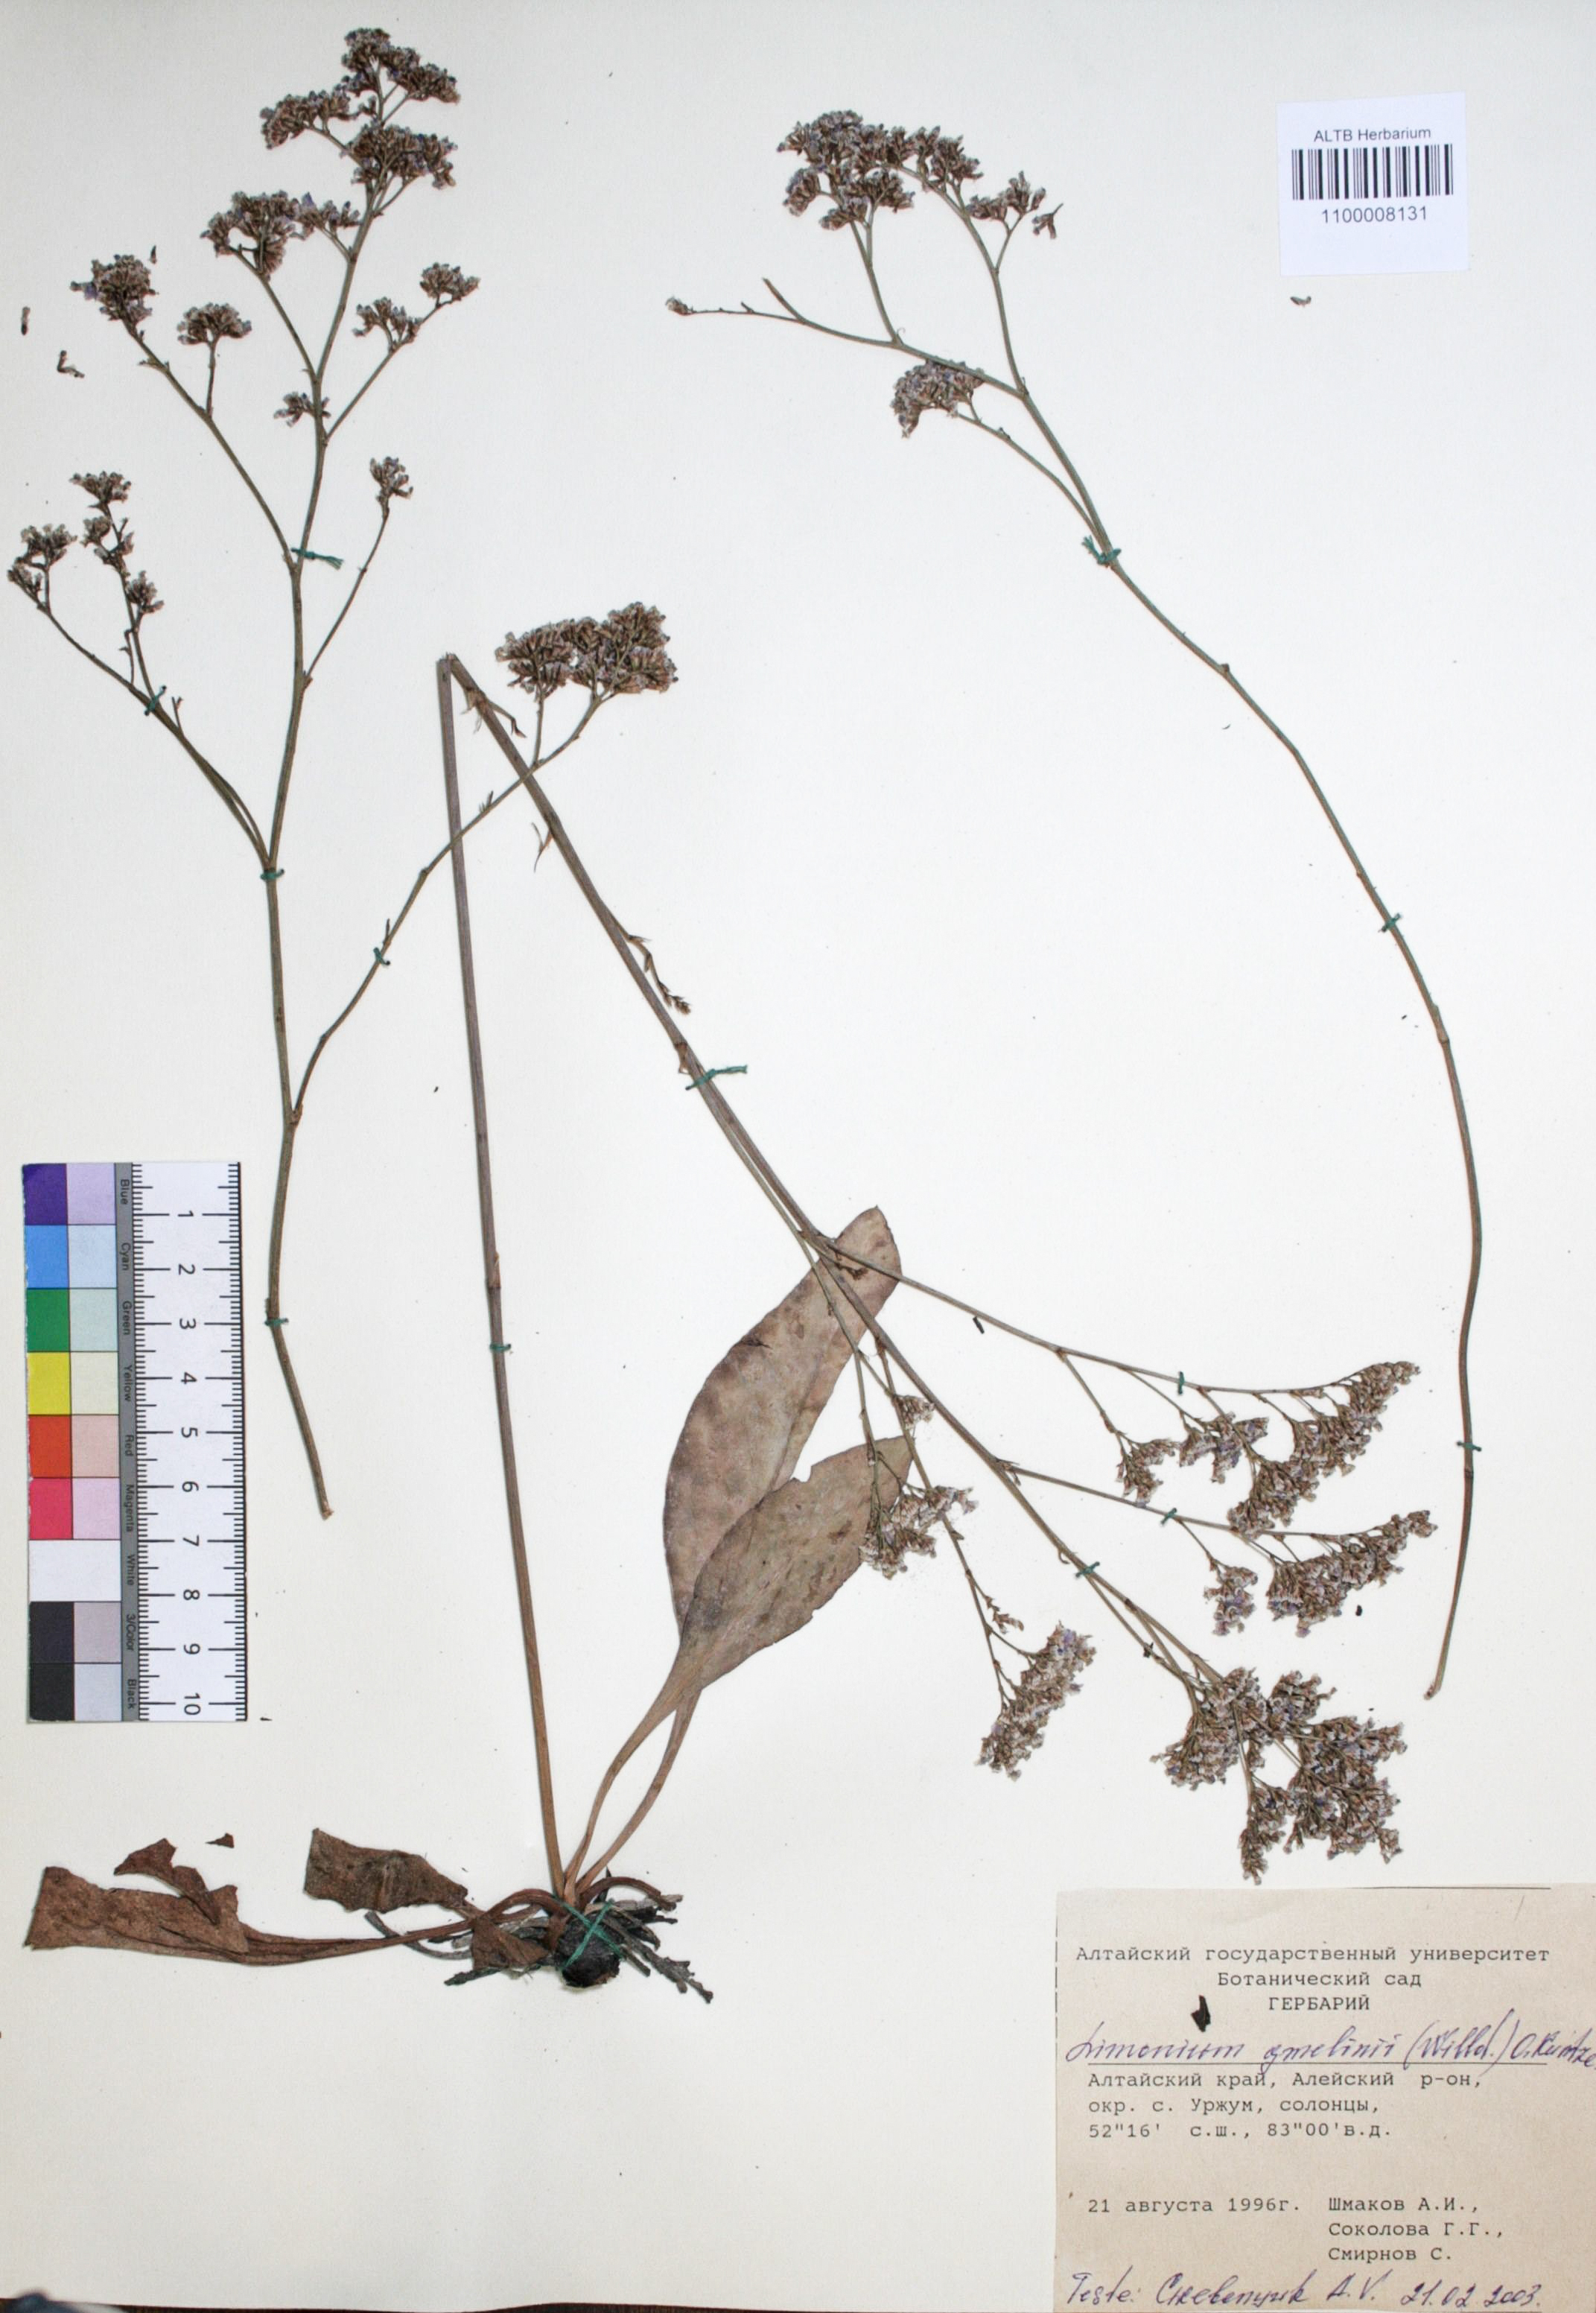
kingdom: Plantae
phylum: Tracheophyta
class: Magnoliopsida
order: Caryophyllales
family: Plumbaginaceae
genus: Limonium
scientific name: Limonium gmelini
